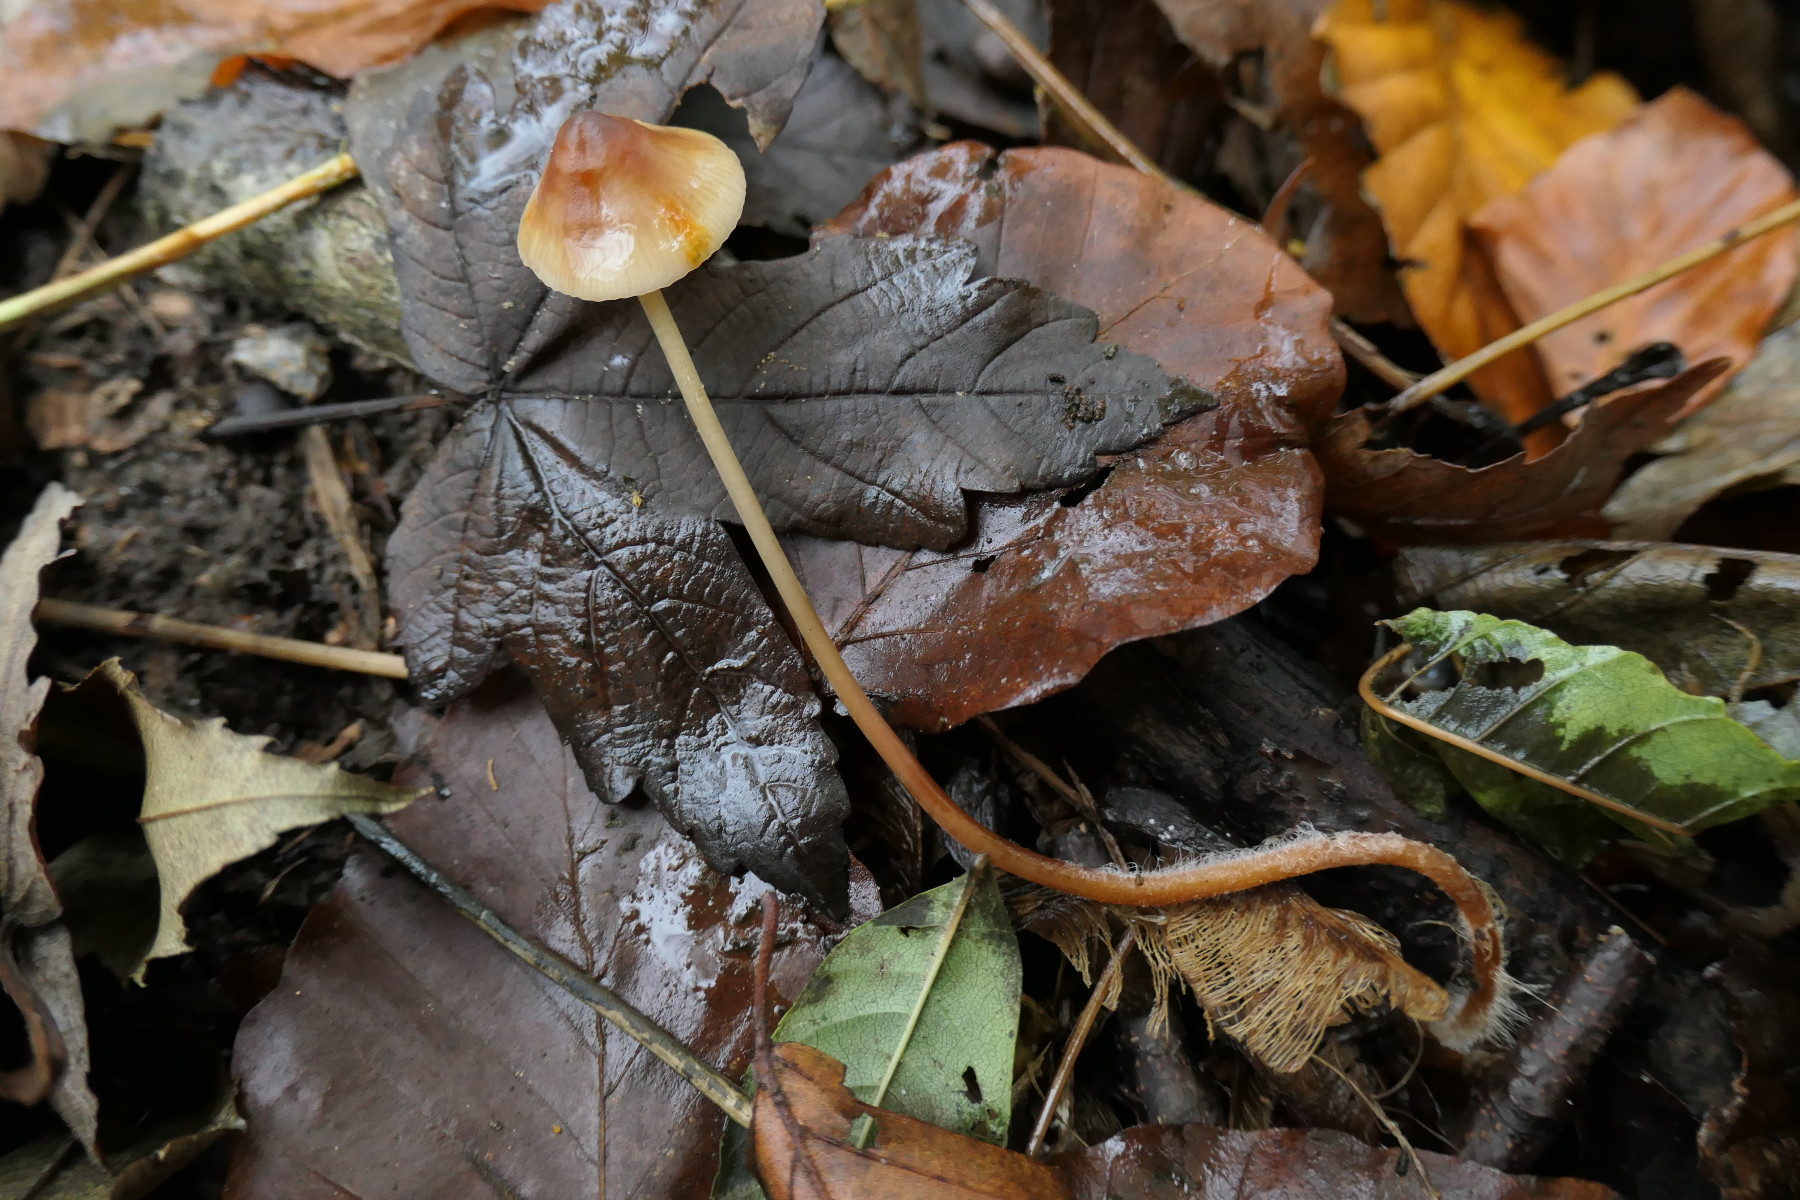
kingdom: Fungi
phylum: Basidiomycota
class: Agaricomycetes
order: Agaricales
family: Mycenaceae
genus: Mycena
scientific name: Mycena crocata
